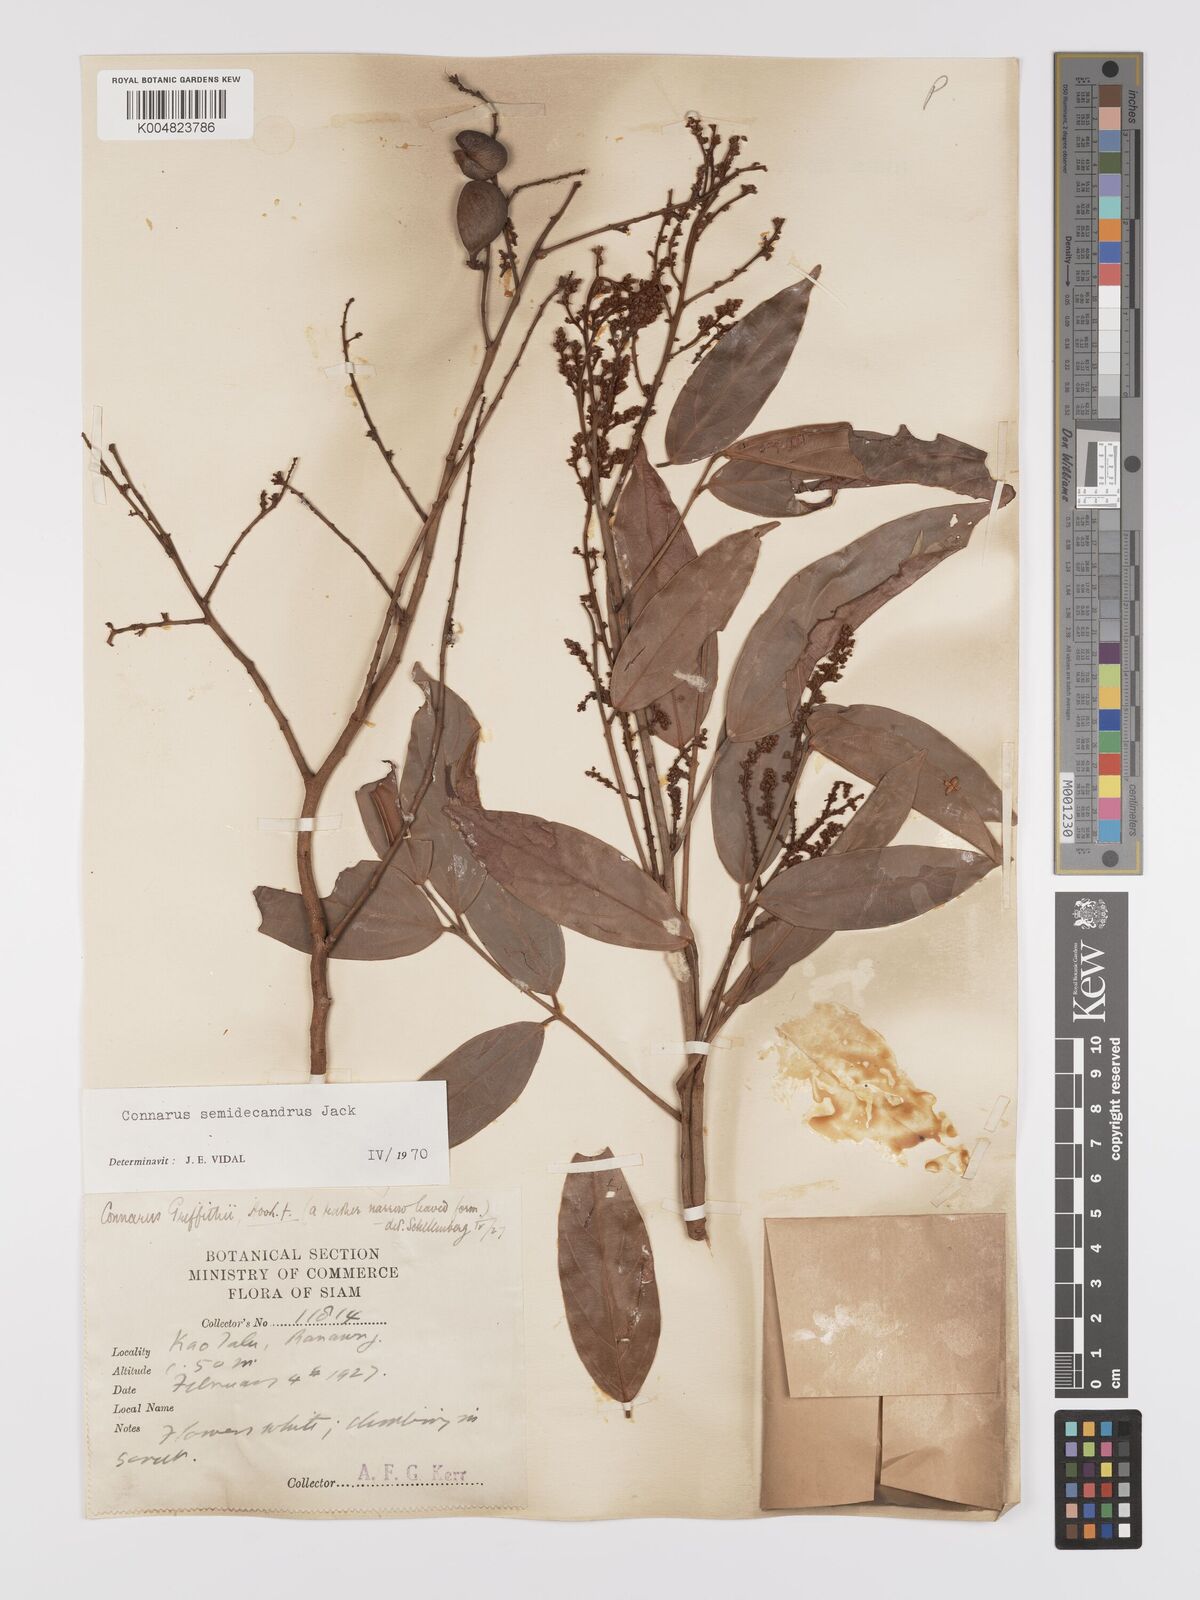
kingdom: Plantae
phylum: Tracheophyta
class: Magnoliopsida
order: Oxalidales
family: Connaraceae
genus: Connarus
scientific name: Connarus semidecandrus
